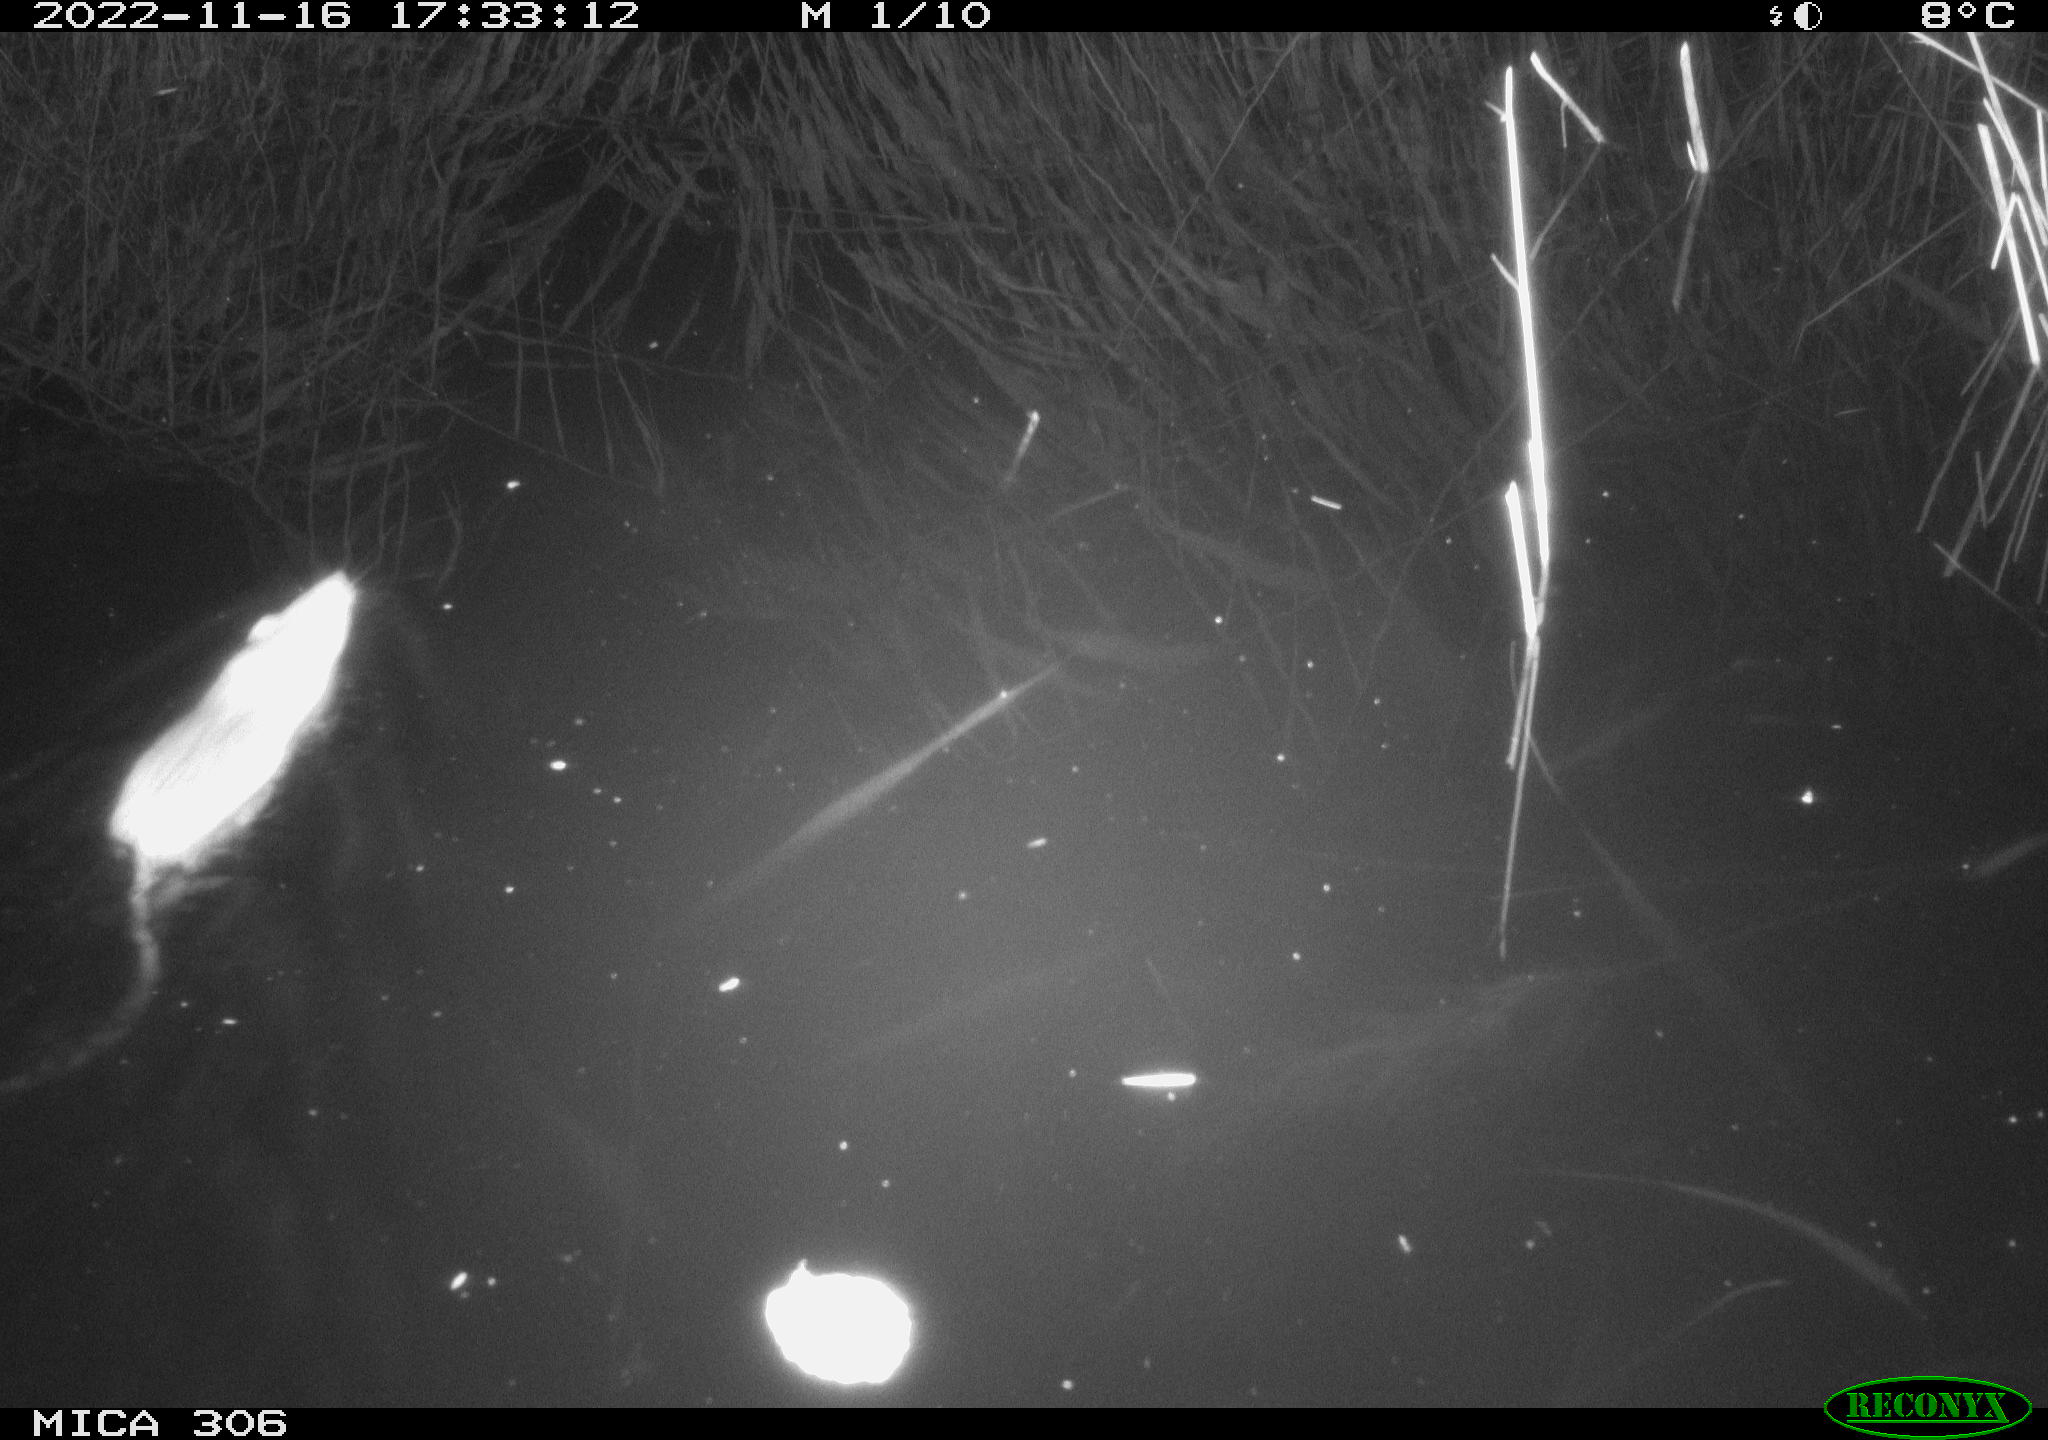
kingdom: Animalia
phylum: Chordata
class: Mammalia
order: Rodentia
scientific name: Rodentia
